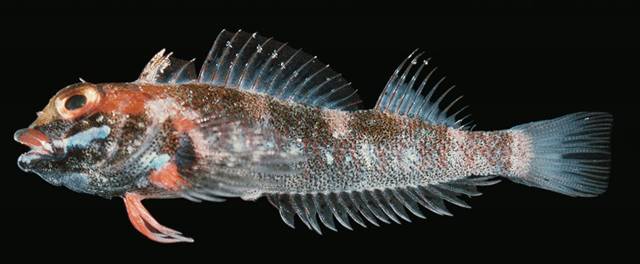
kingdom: Animalia
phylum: Chordata
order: Perciformes
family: Tripterygiidae
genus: Helcogramma
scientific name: Helcogramma rharhabe
